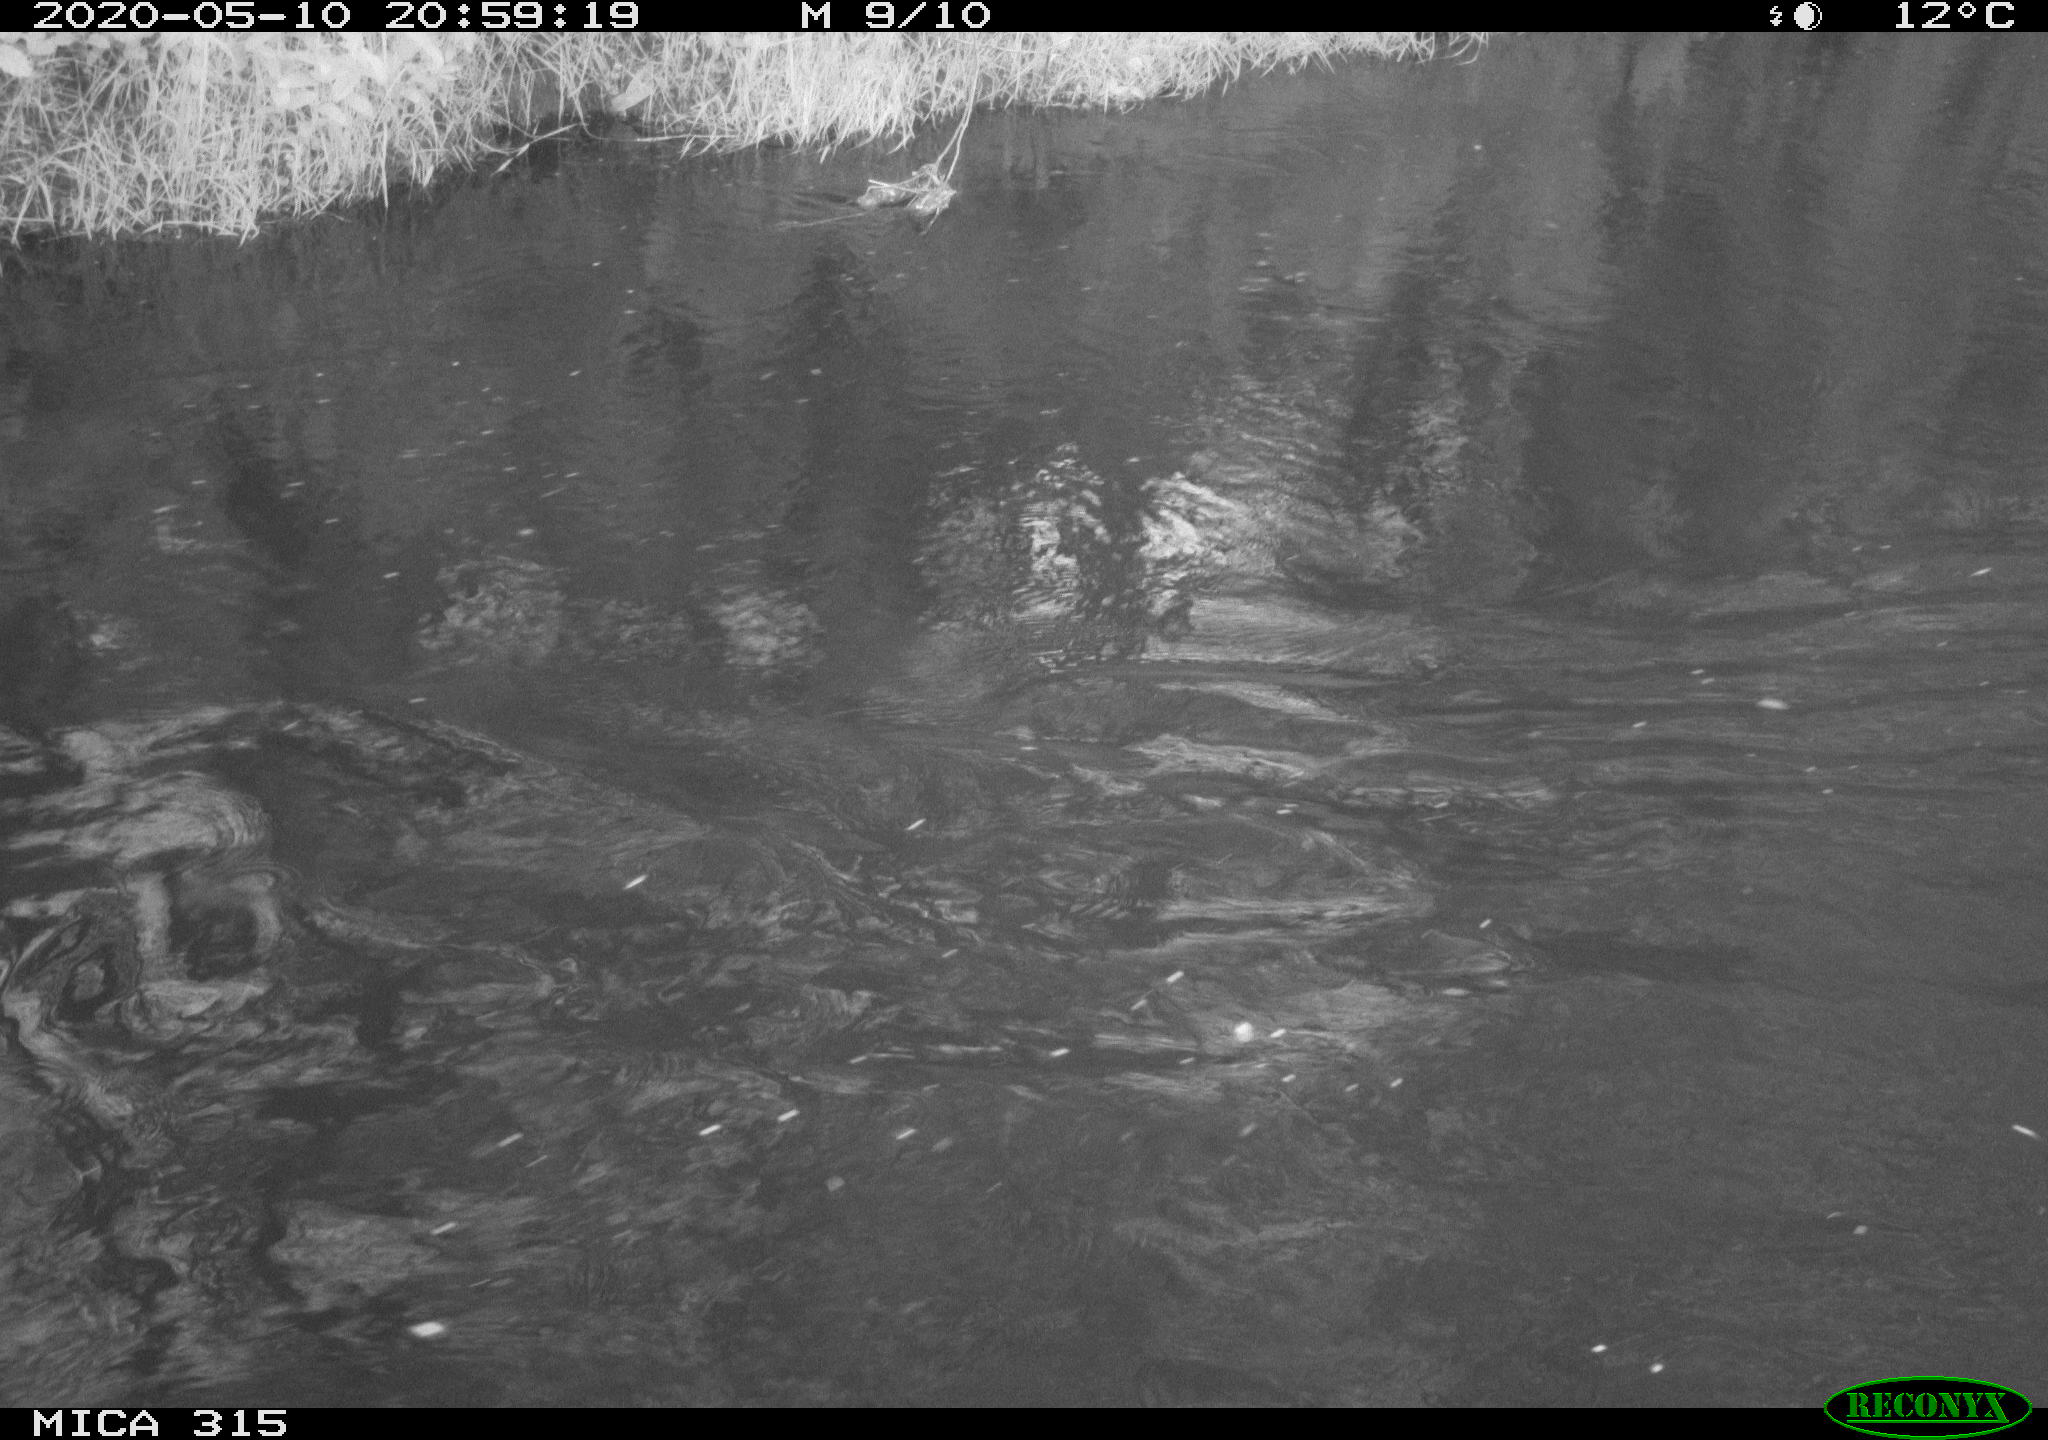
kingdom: Animalia
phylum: Chordata
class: Aves
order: Anseriformes
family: Anatidae
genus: Anas
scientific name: Anas platyrhynchos
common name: Mallard
